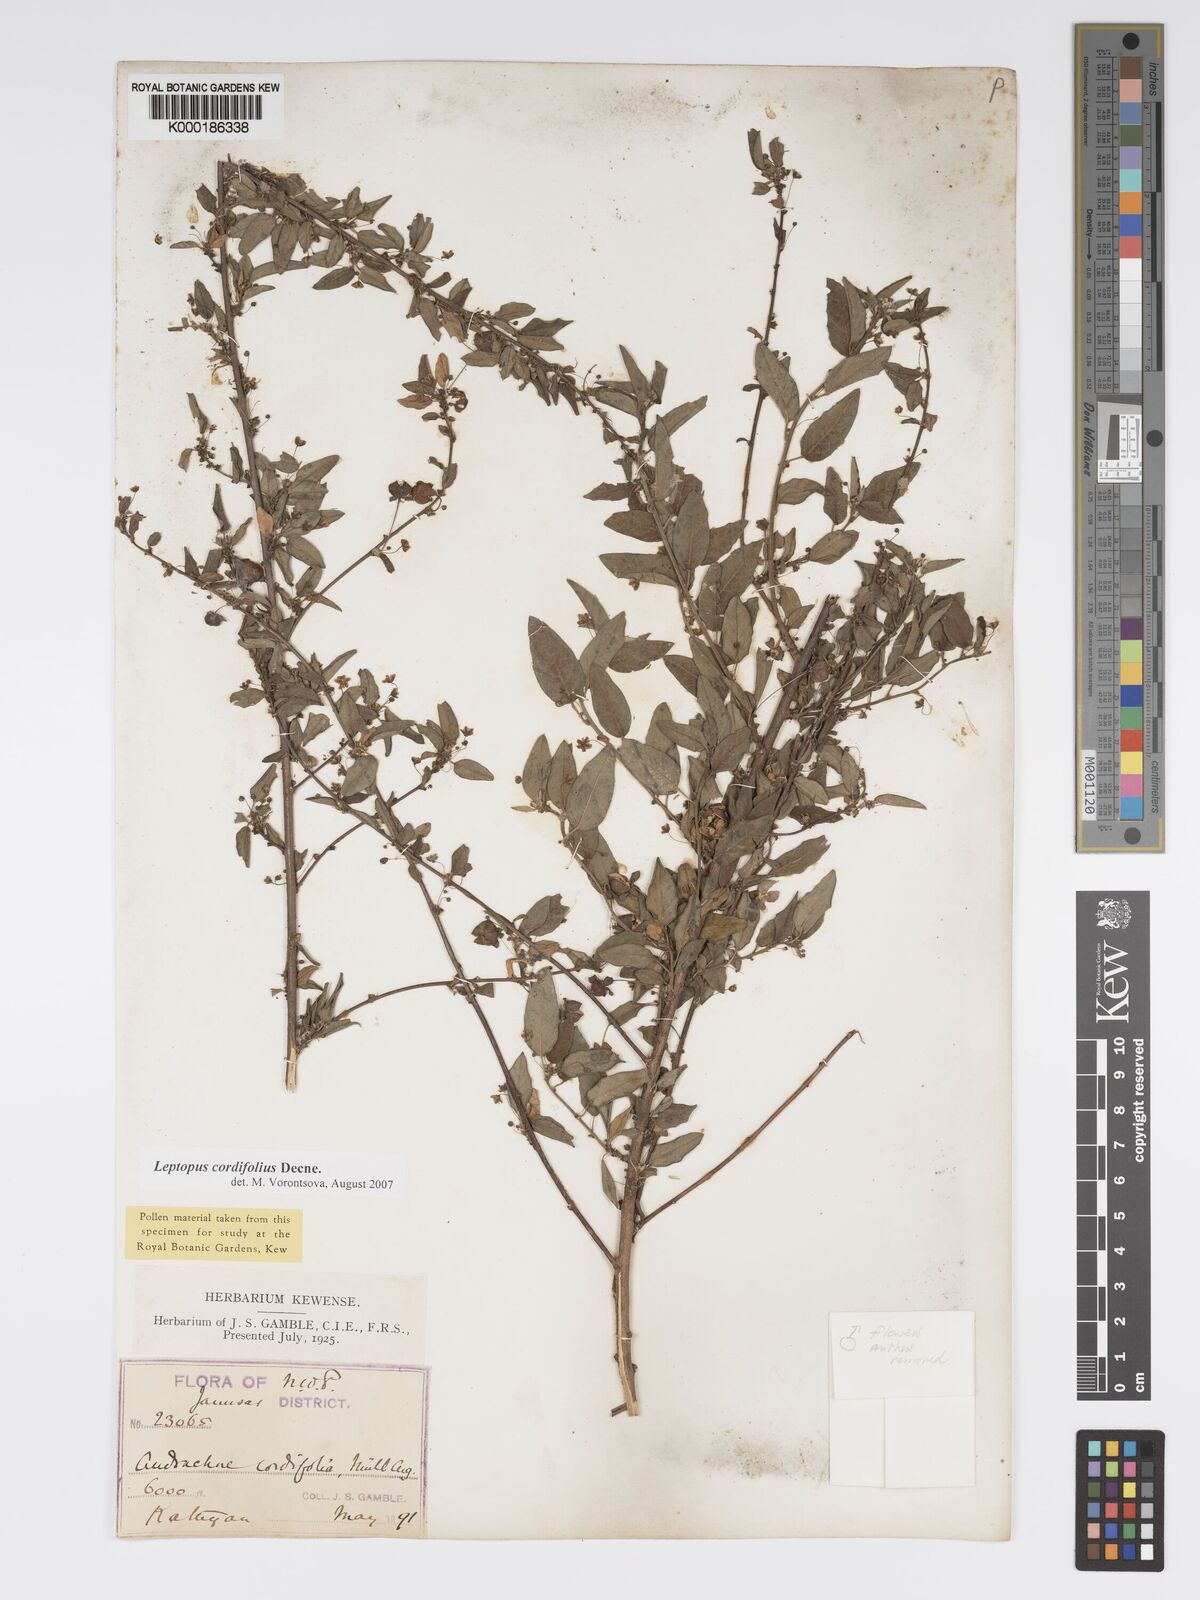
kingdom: Plantae
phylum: Tracheophyta
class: Magnoliopsida
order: Malpighiales
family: Phyllanthaceae
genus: Leptopus
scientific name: Leptopus cordifolius
